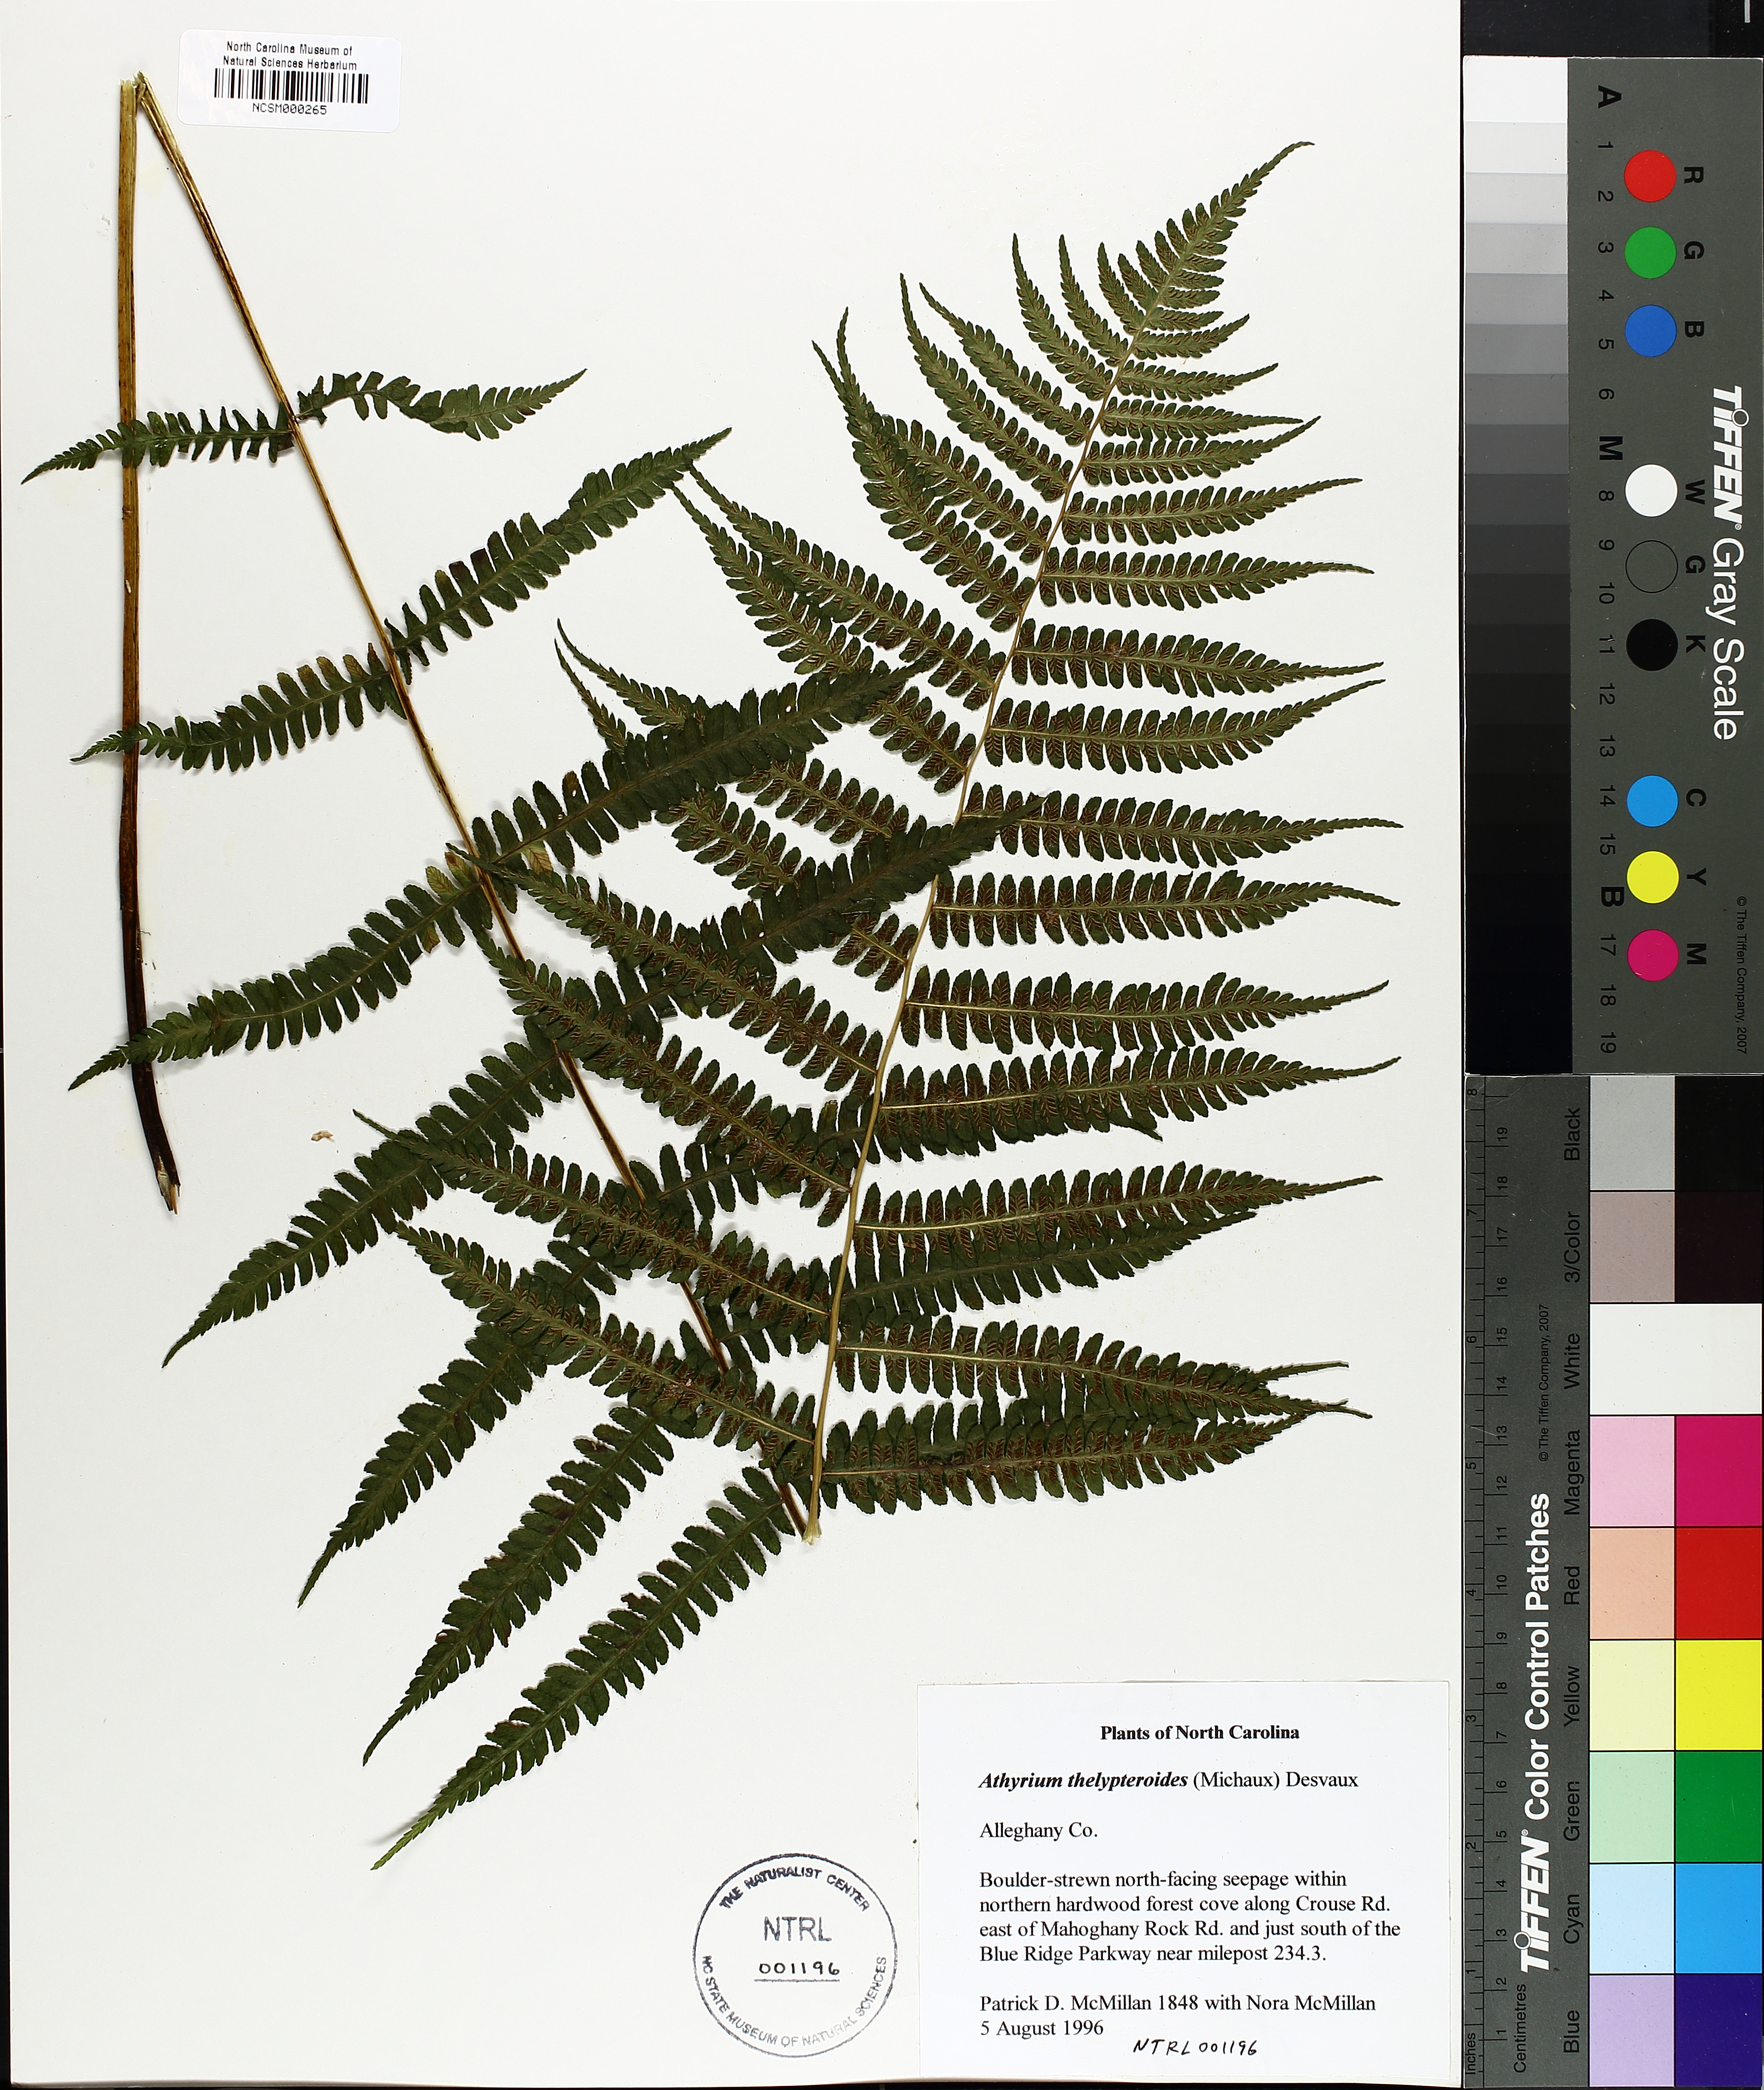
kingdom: Plantae
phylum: Tracheophyta
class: Polypodiopsida
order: Polypodiales
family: Athyriaceae
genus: Deparia
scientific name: Deparia acrostichoides
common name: Silver false spleenwort
